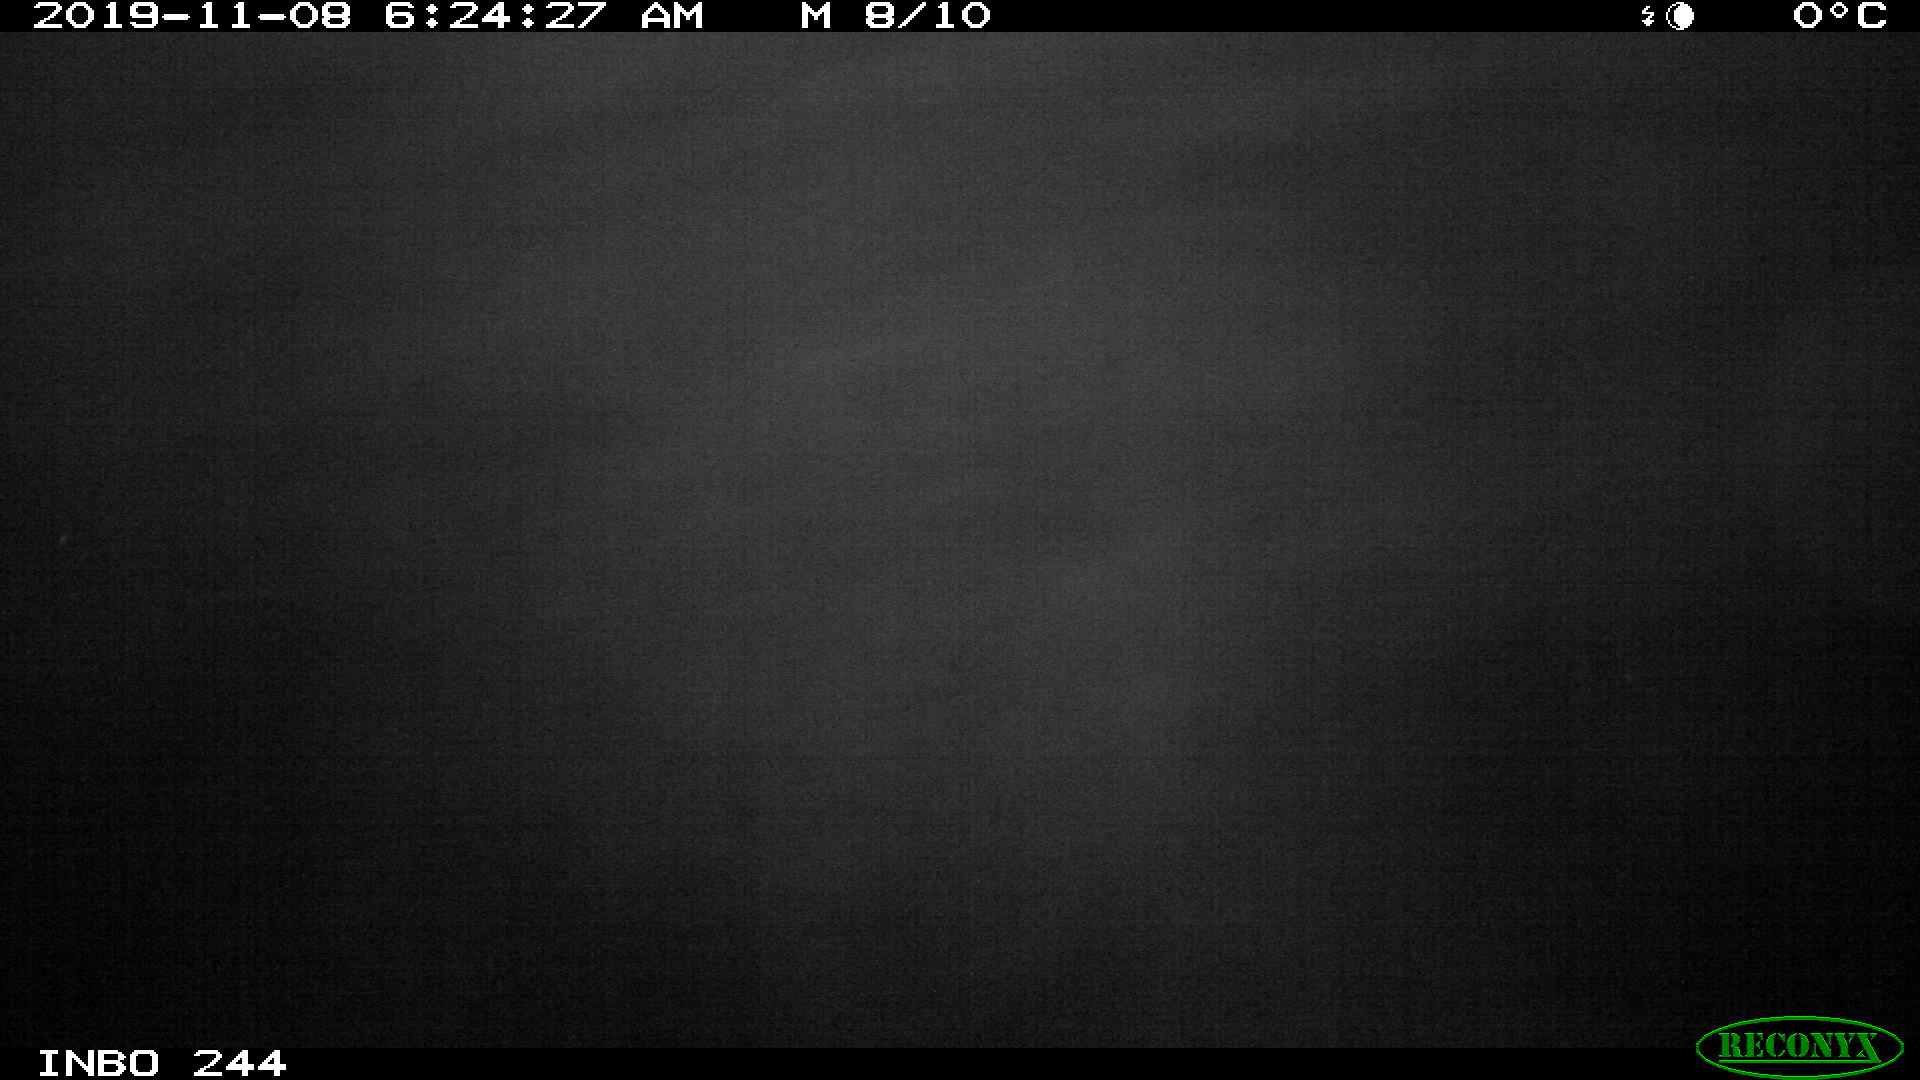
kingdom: Animalia
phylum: Chordata
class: Aves
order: Anseriformes
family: Anatidae
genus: Anas
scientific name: Anas platyrhynchos
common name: Mallard
